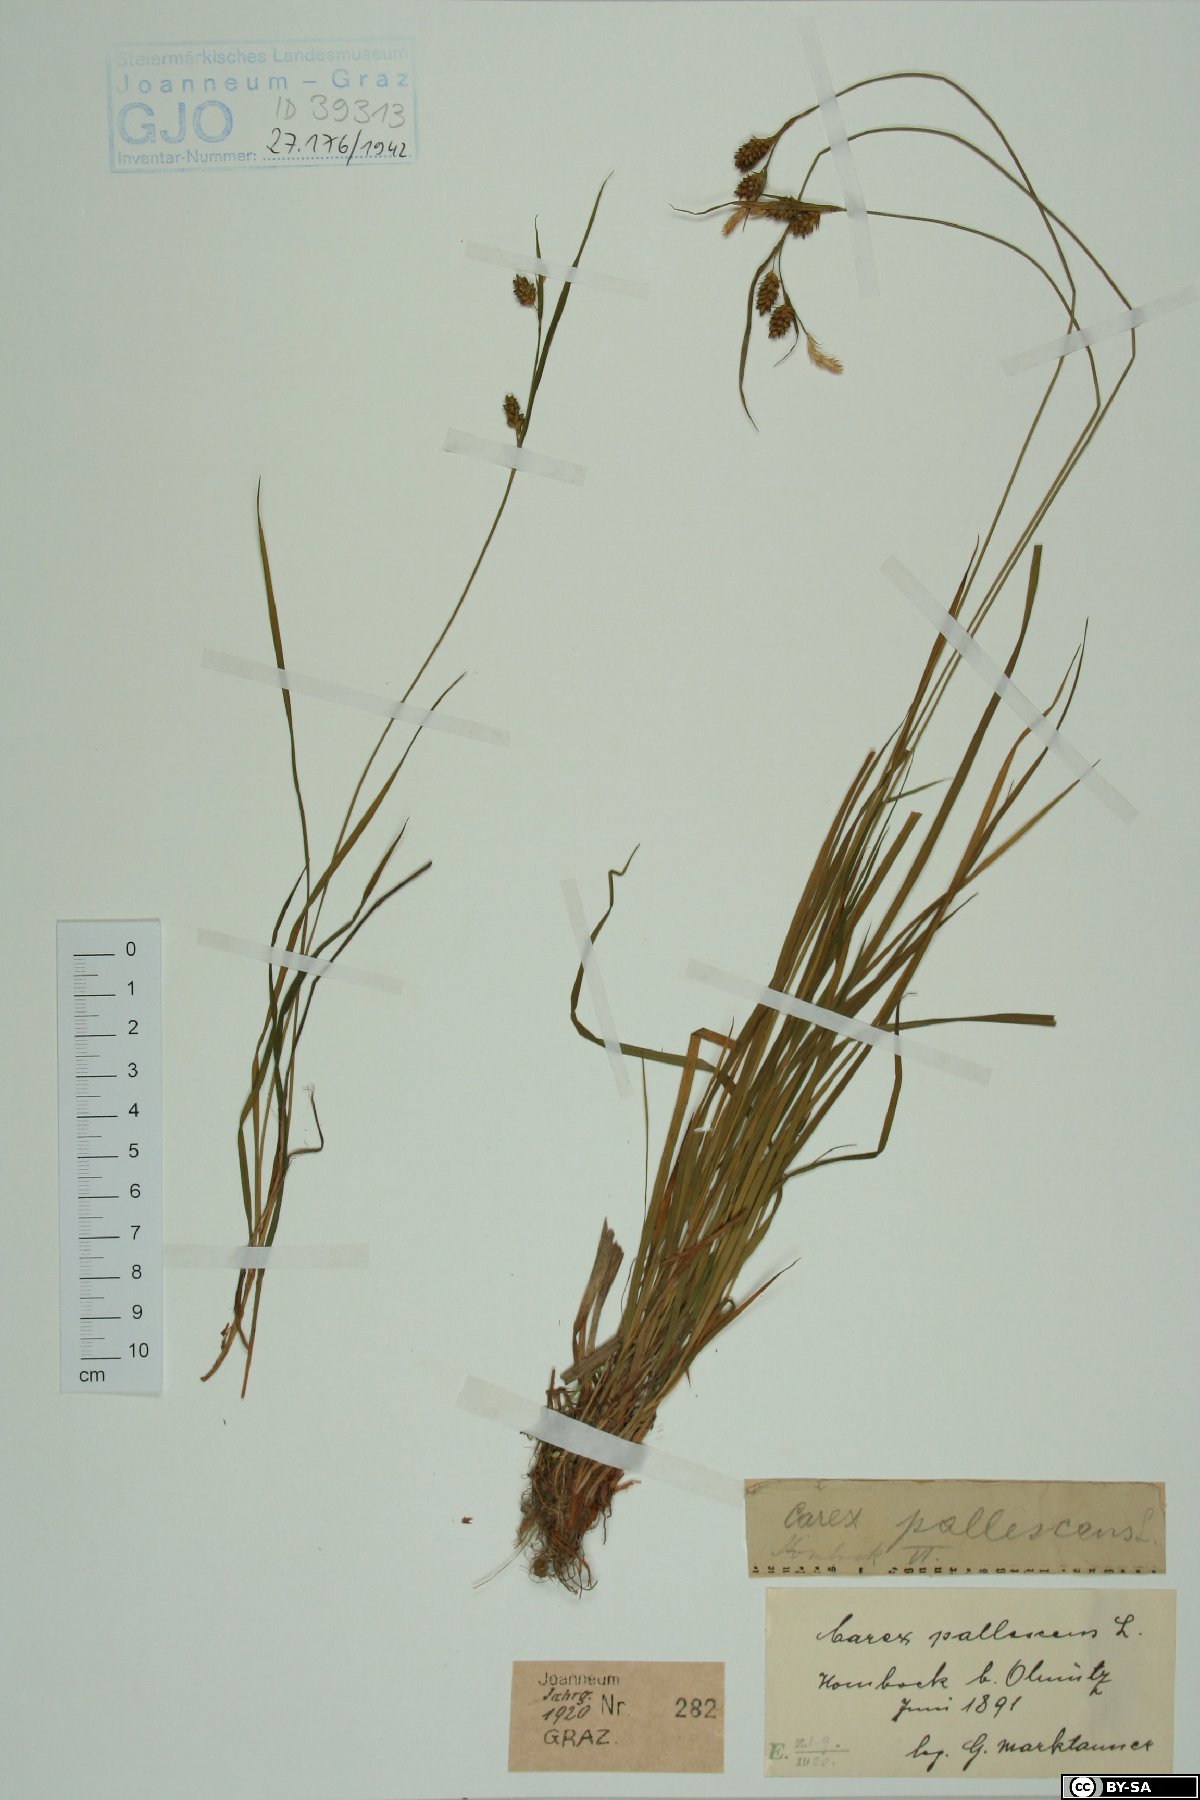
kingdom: Plantae
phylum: Tracheophyta
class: Liliopsida
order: Poales
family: Cyperaceae
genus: Carex
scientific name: Carex pallescens
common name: Pale sedge
